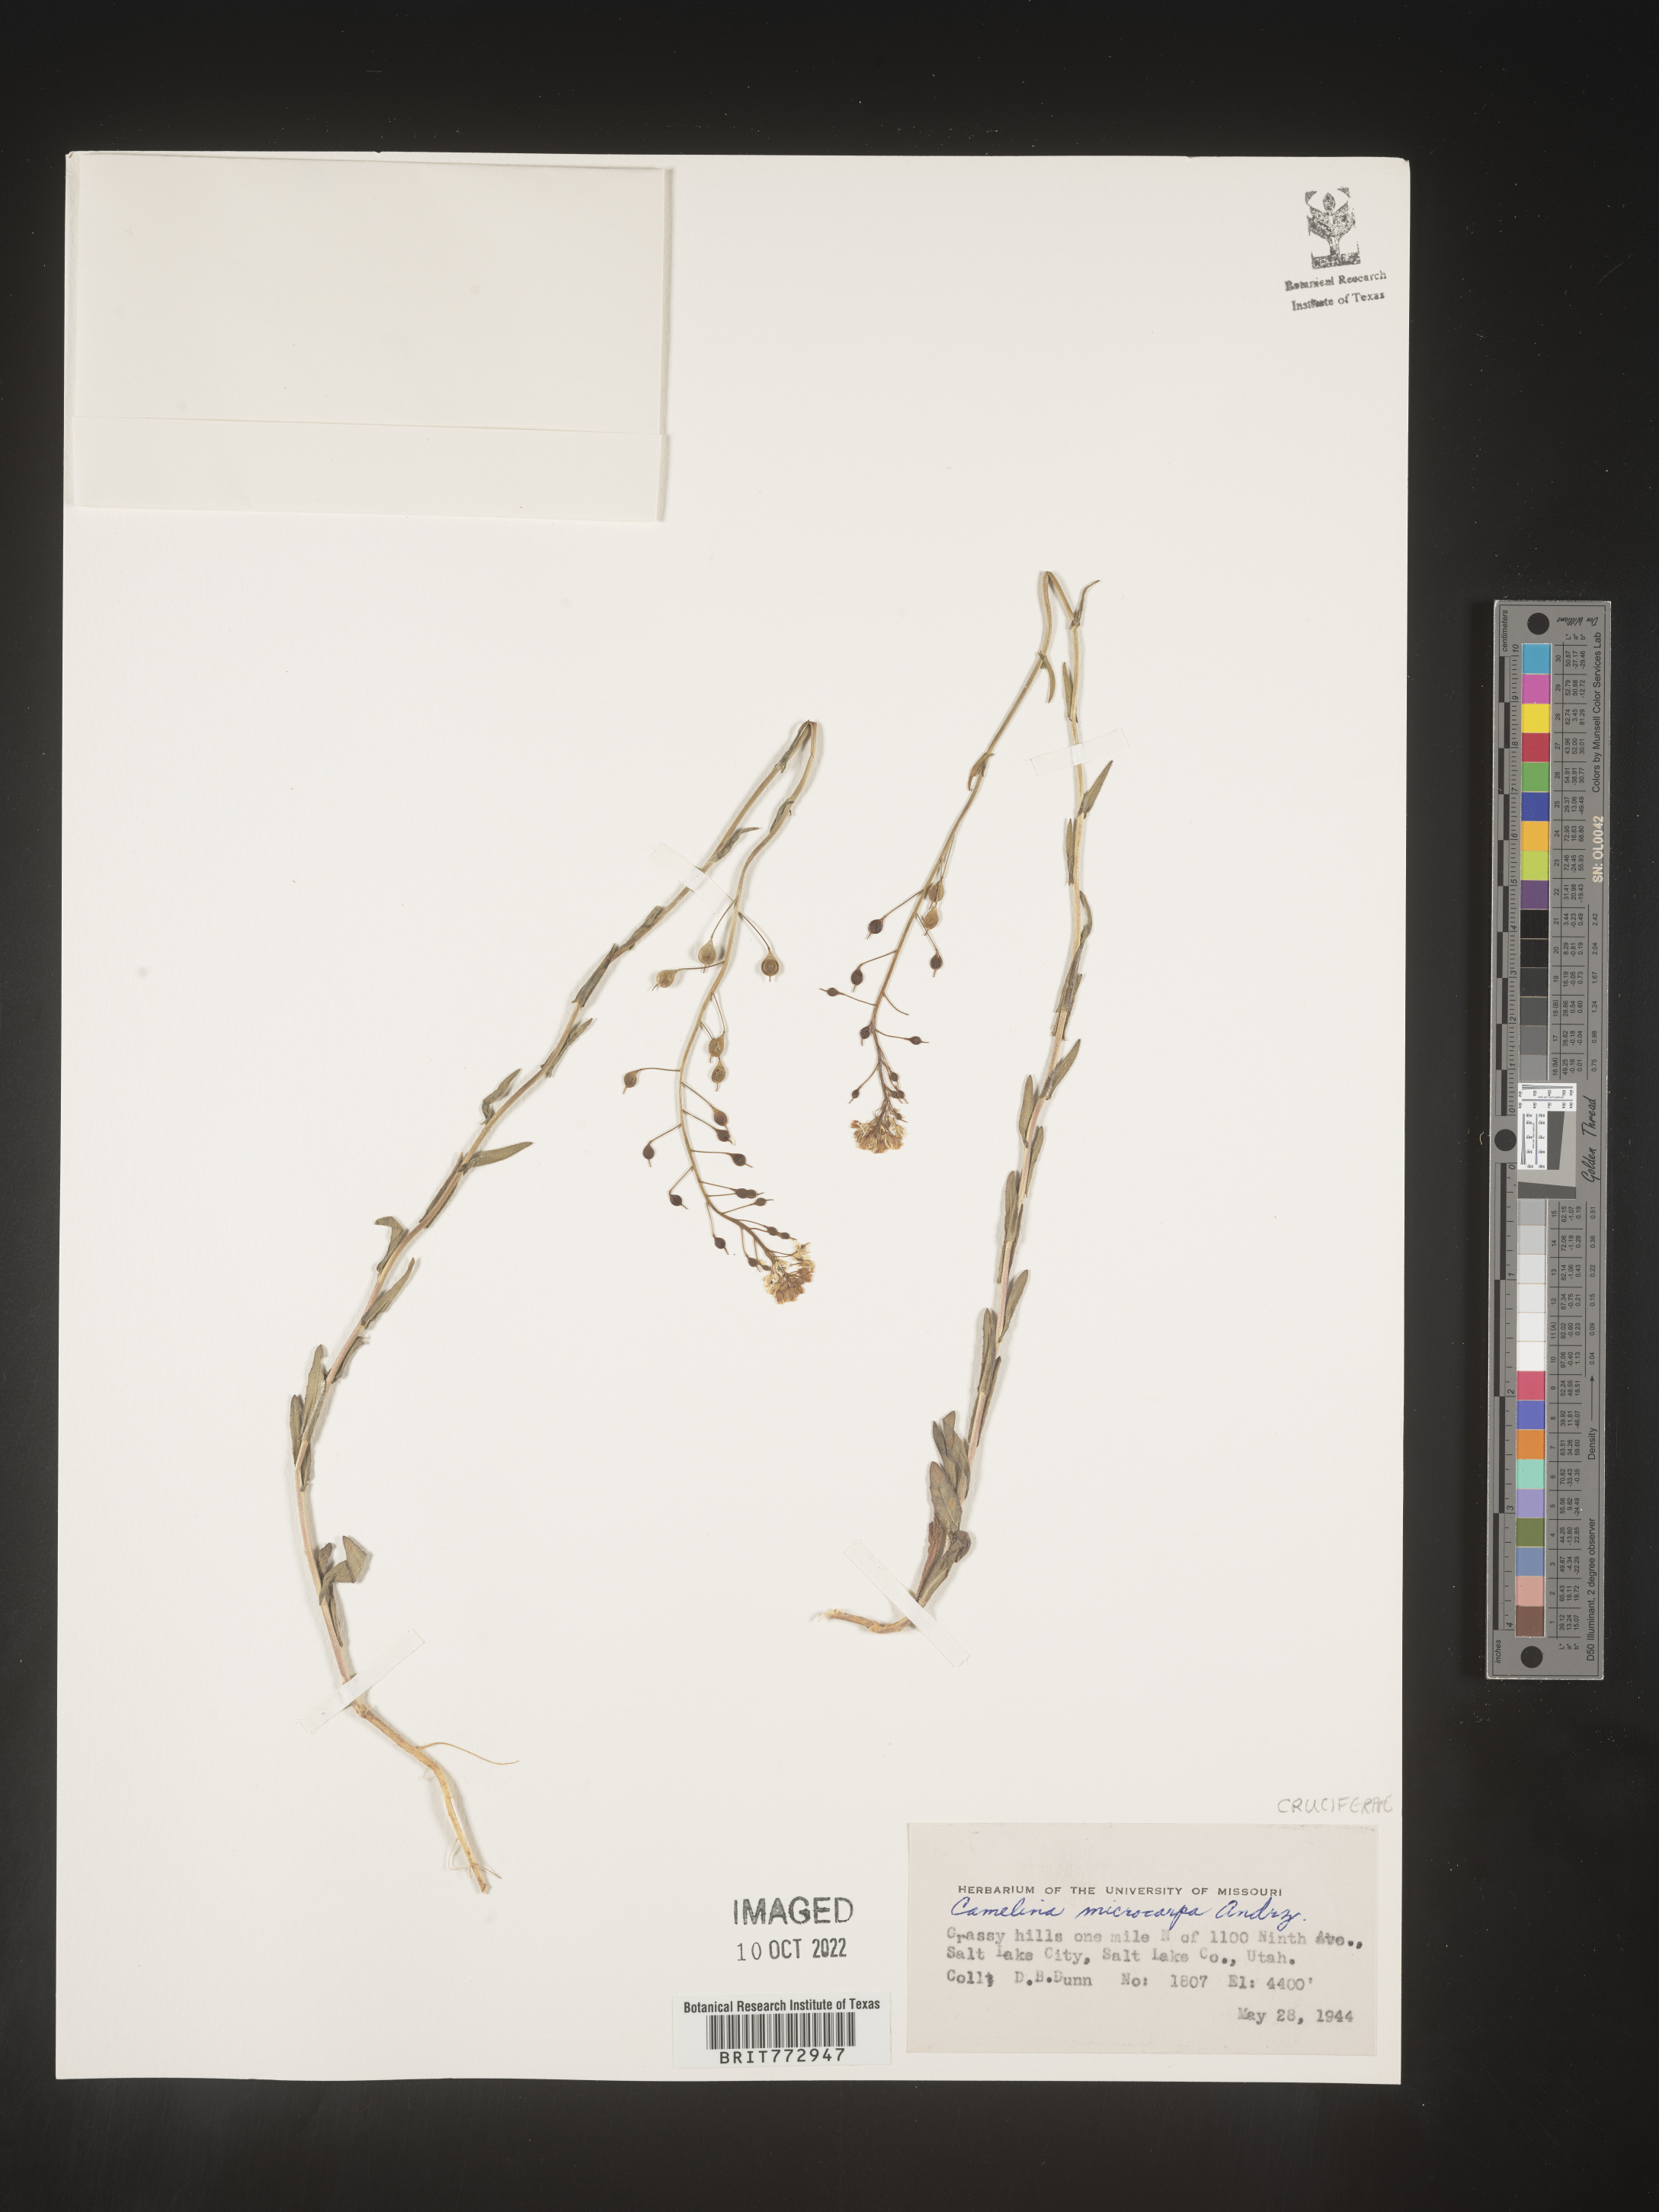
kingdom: Plantae
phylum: Tracheophyta
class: Magnoliopsida
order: Brassicales
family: Brassicaceae
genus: Camelina
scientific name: Camelina microcarpa
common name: Lesser gold-of-pleasure
